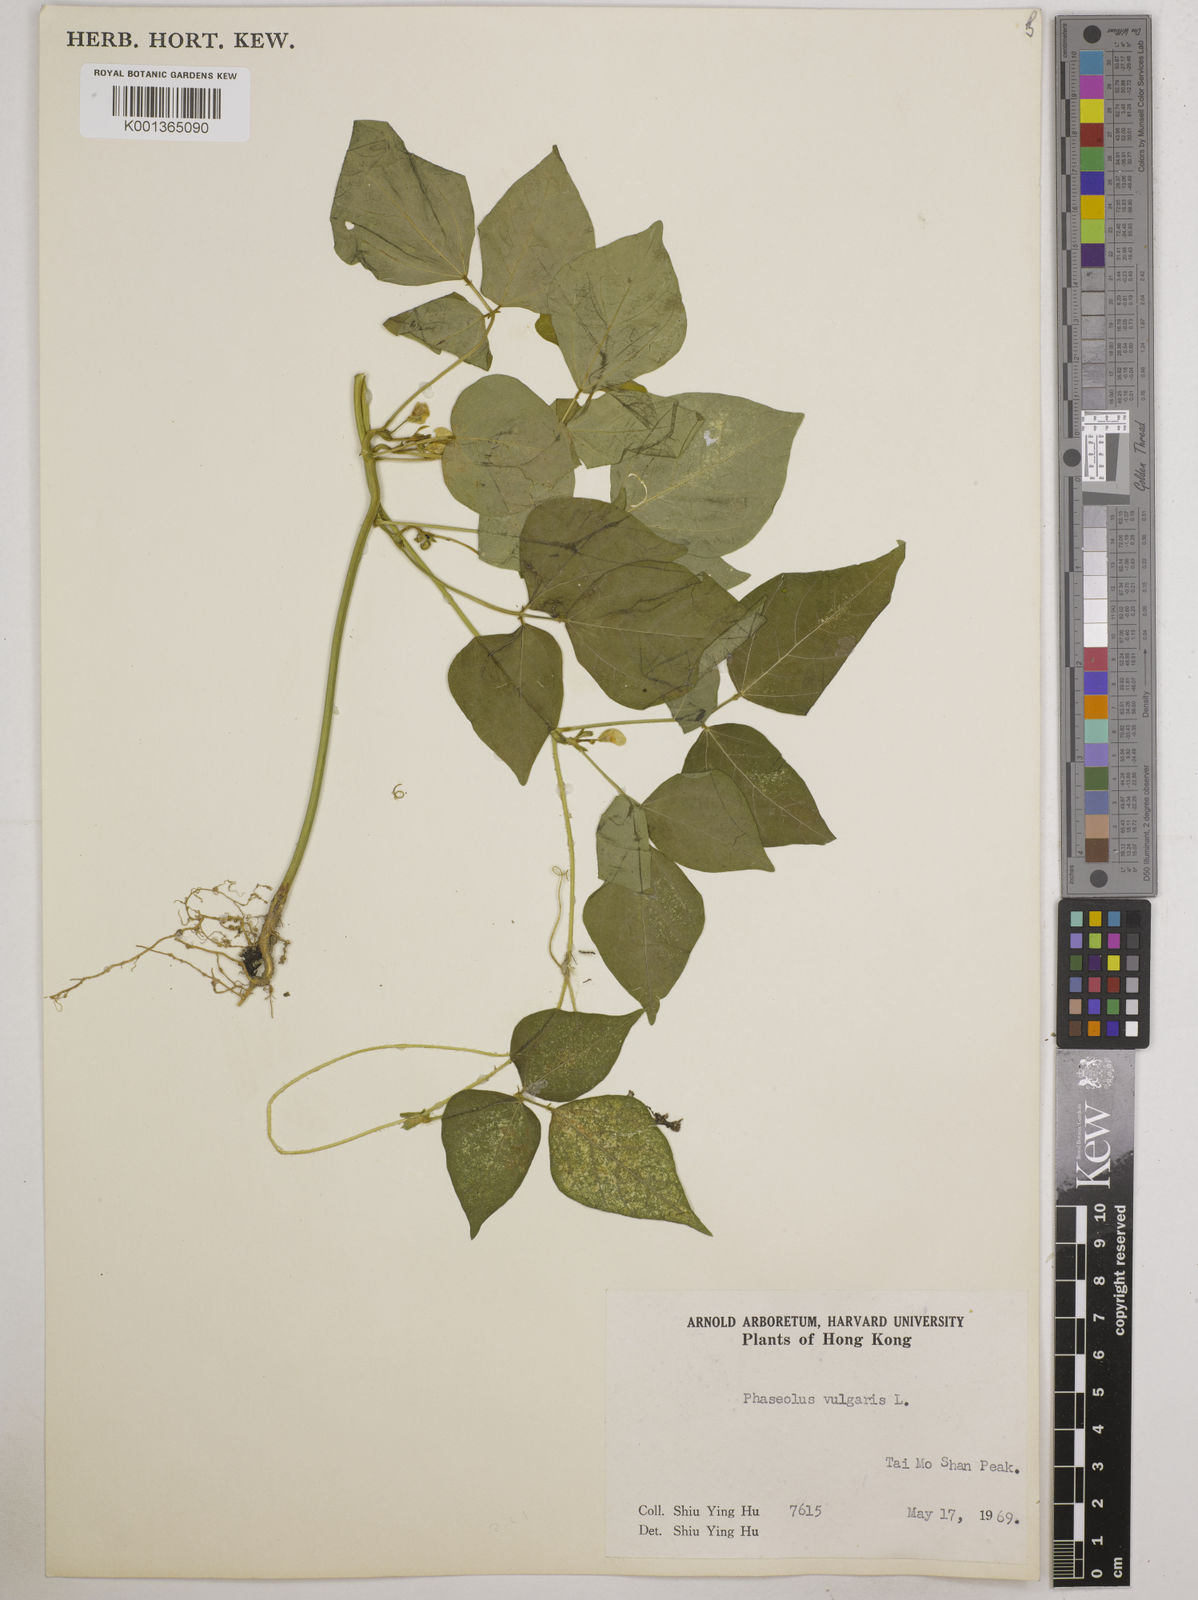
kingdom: Plantae
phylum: Tracheophyta
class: Magnoliopsida
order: Fabales
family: Fabaceae
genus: Phaseolus
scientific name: Phaseolus vulgaris
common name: Bean
